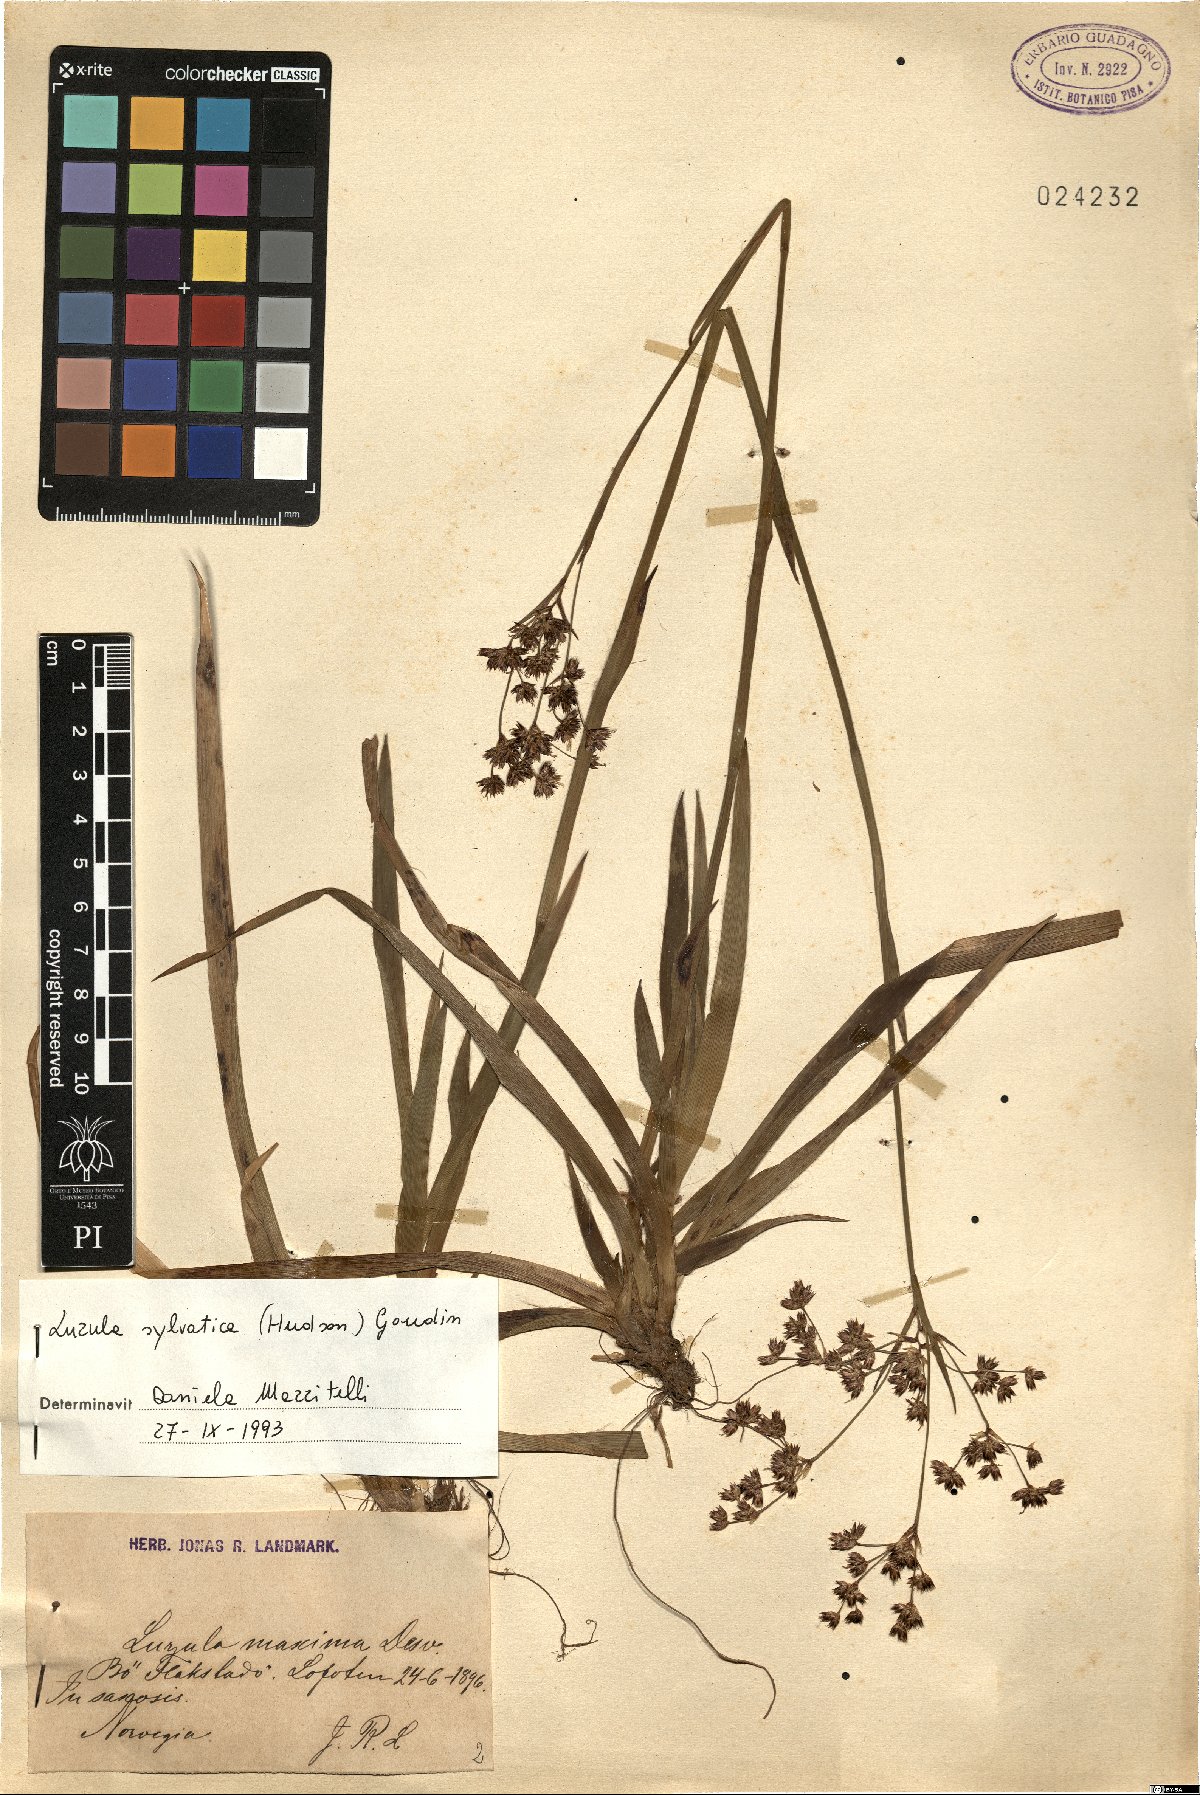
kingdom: Plantae
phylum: Tracheophyta
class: Liliopsida
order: Poales
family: Juncaceae
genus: Luzula
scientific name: Luzula sylvatica
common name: Great wood-rush
